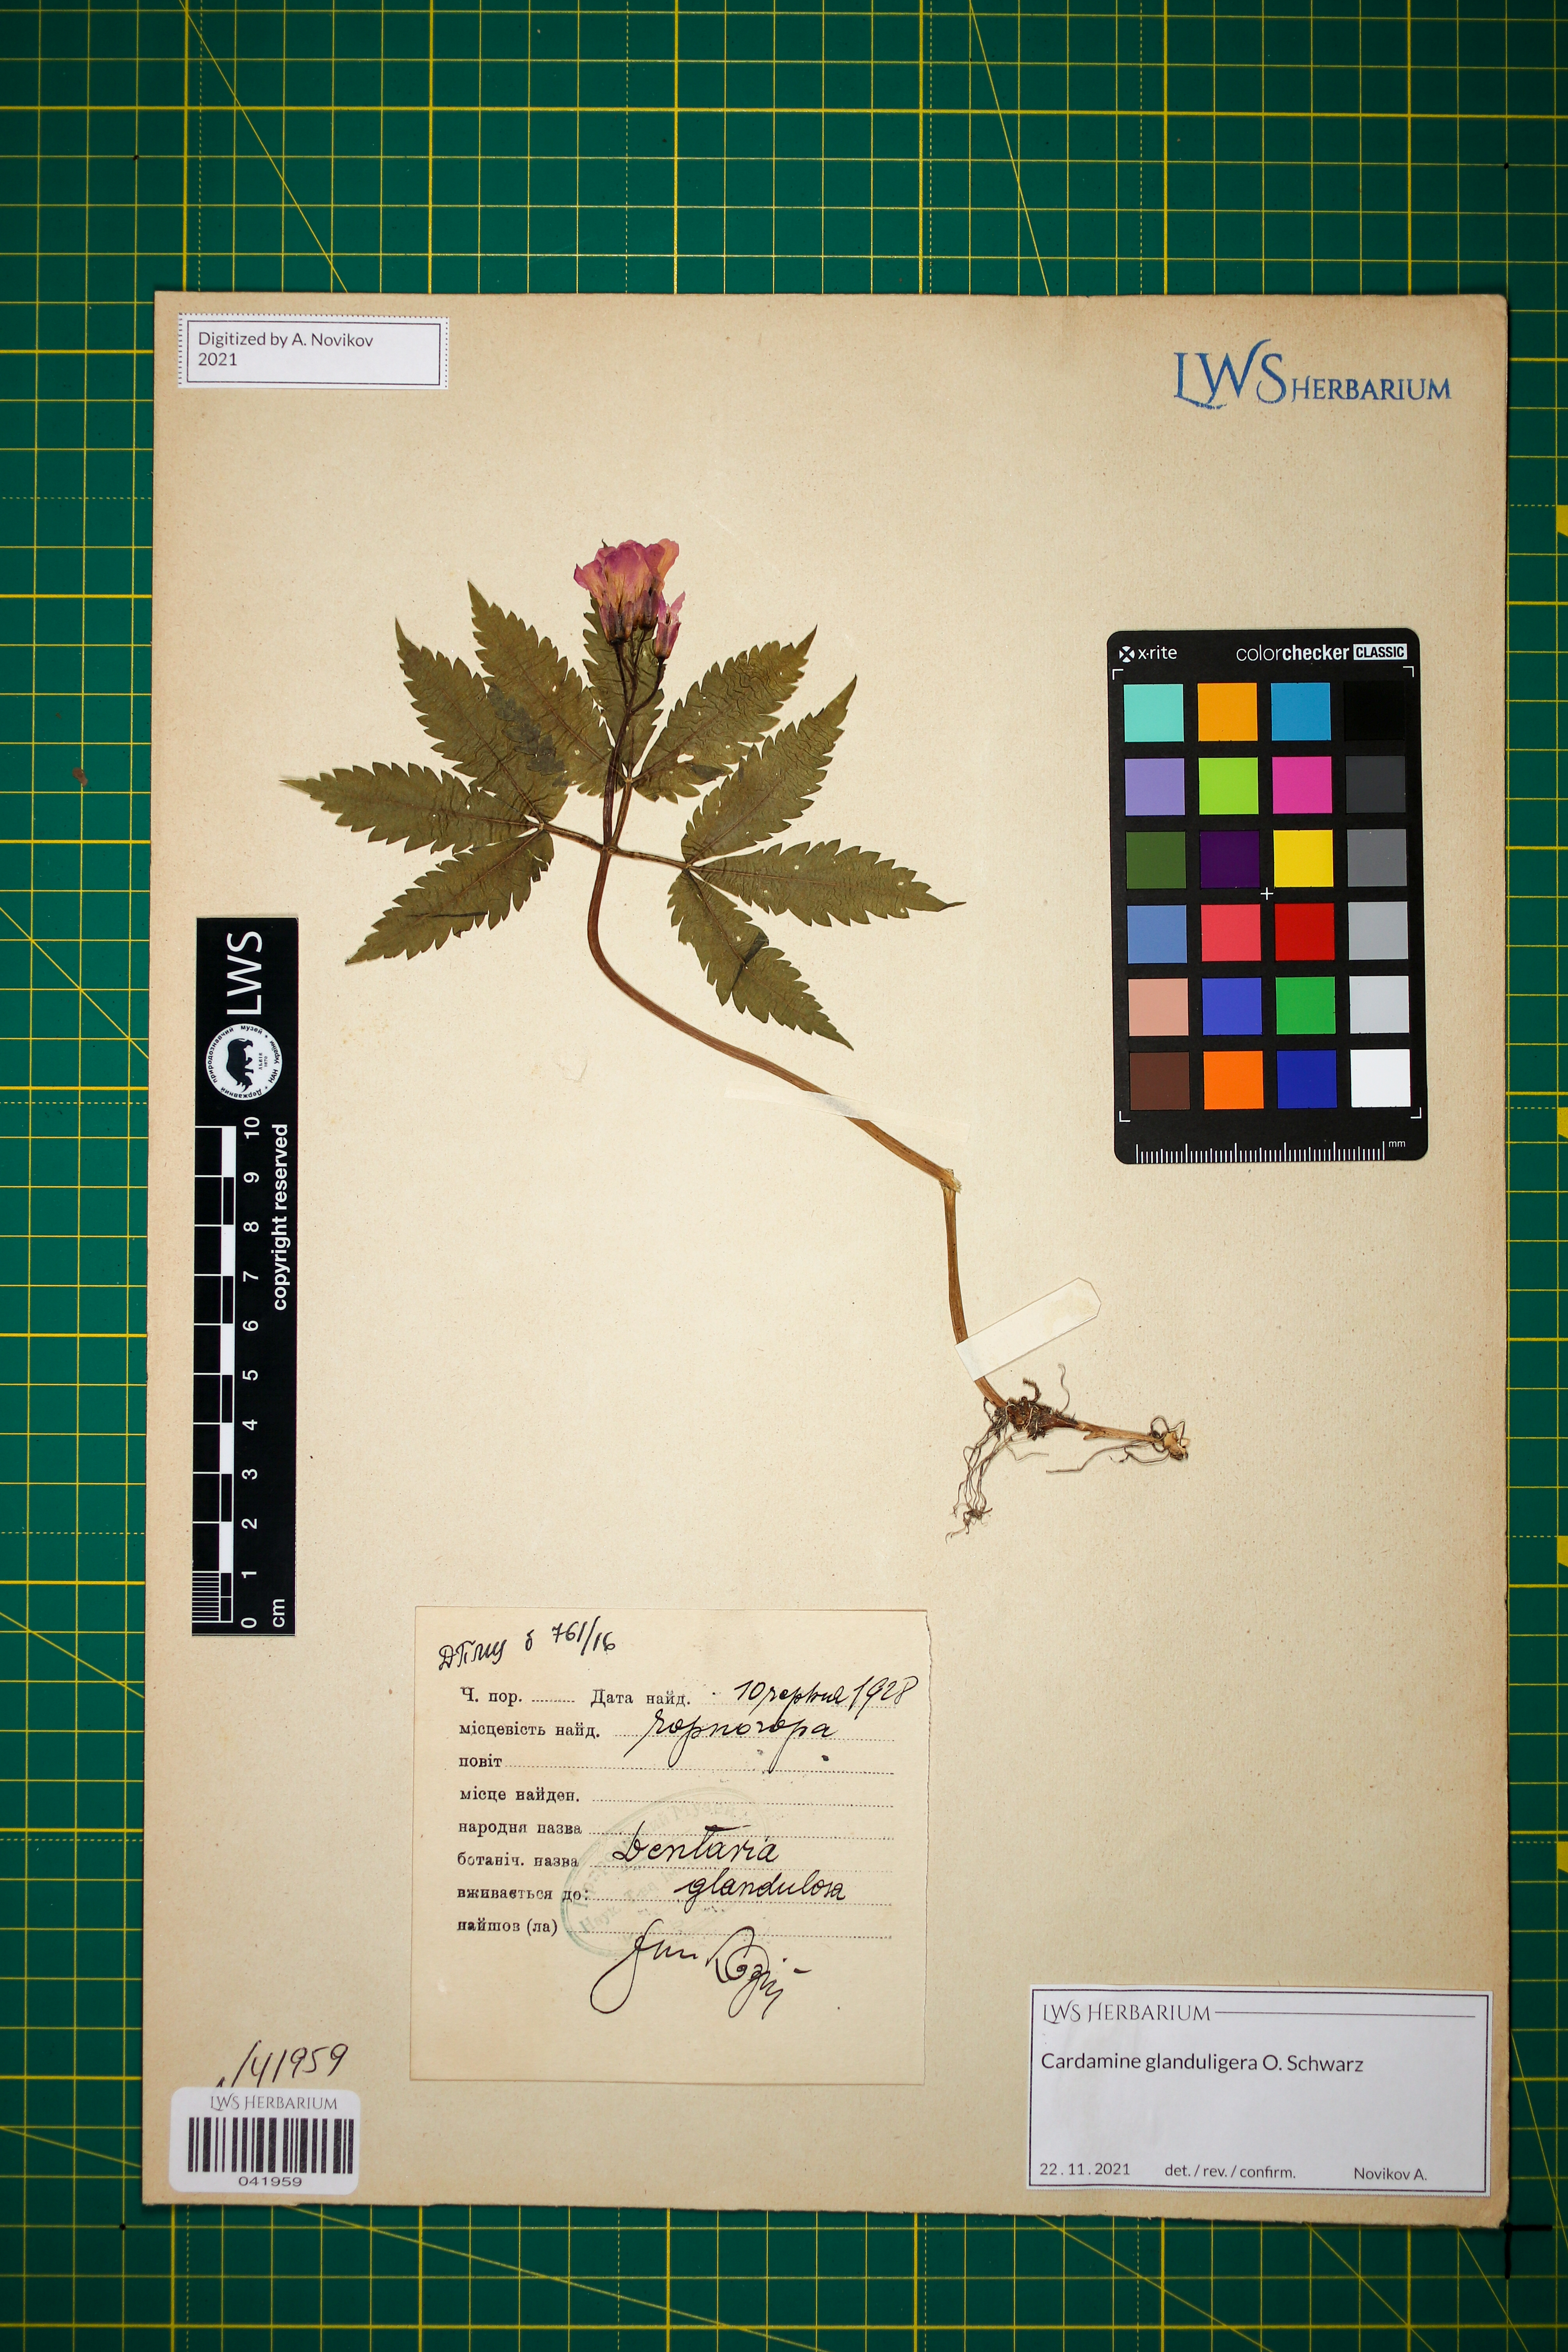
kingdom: Plantae
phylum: Tracheophyta
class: Magnoliopsida
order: Brassicales
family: Brassicaceae
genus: Cardamine
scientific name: Cardamine glanduligera
